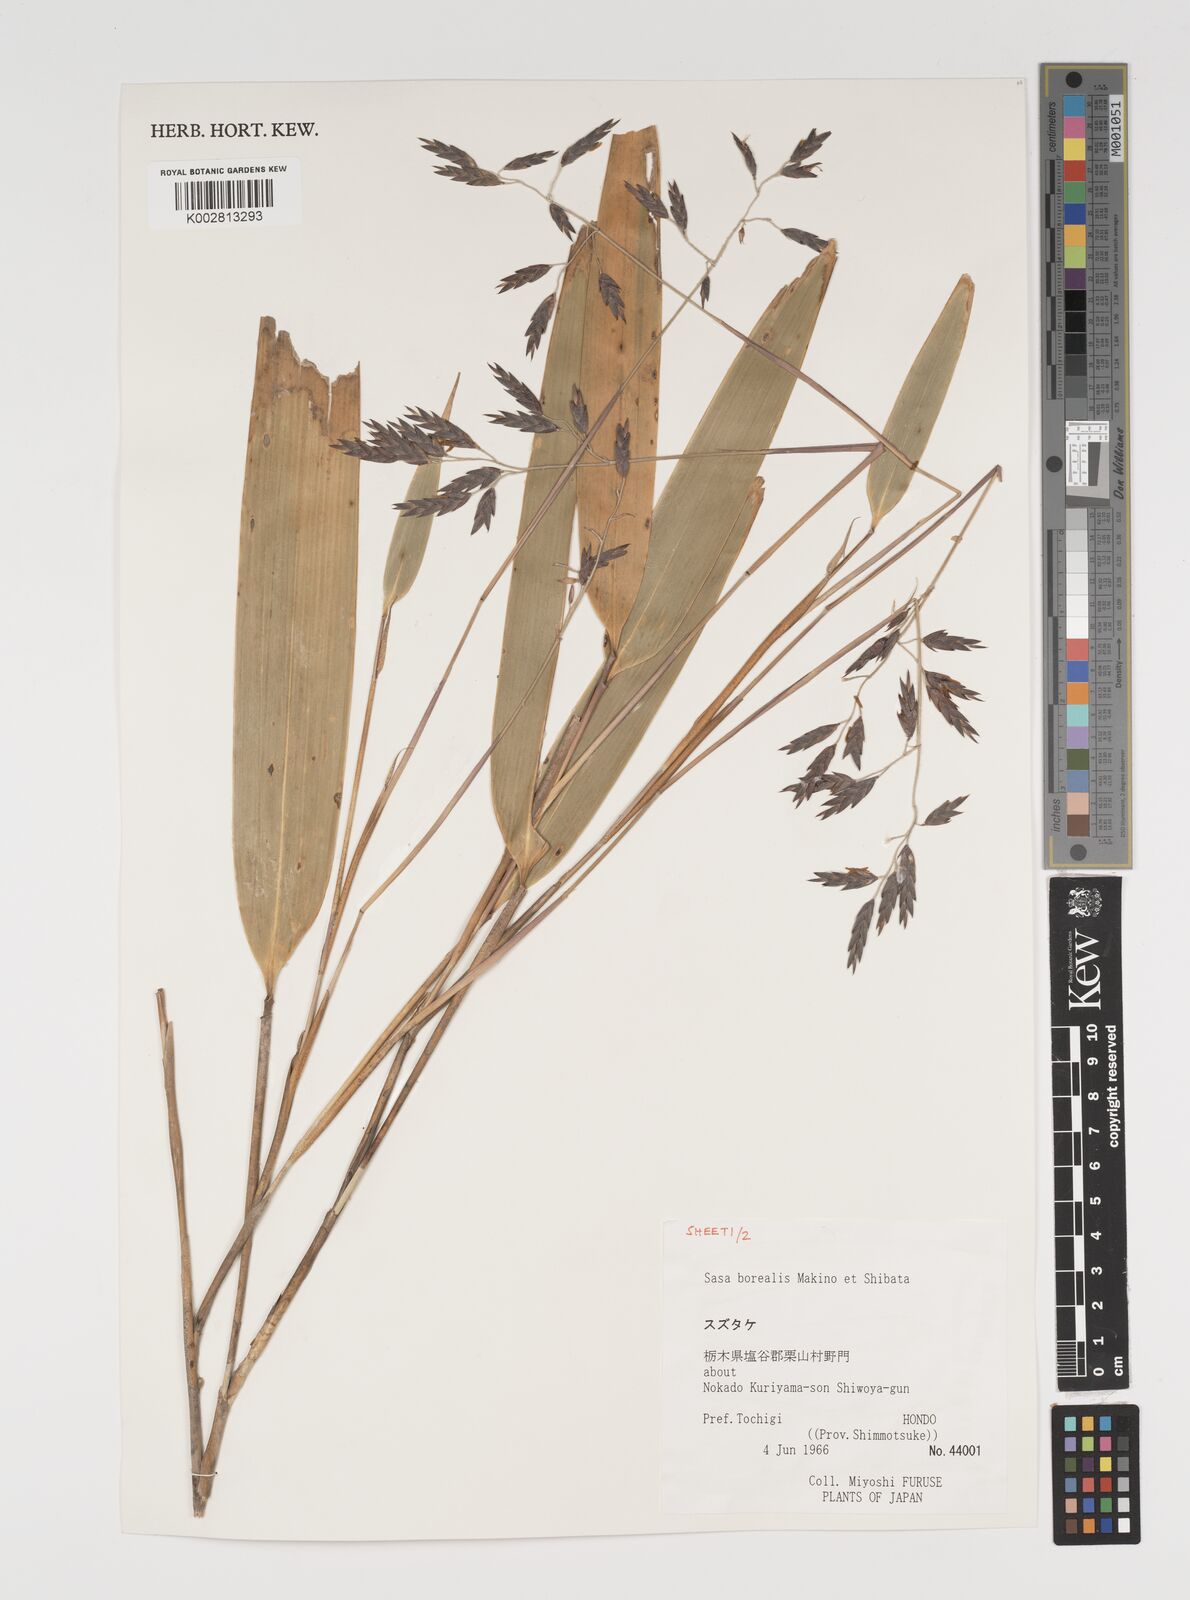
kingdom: Plantae
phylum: Tracheophyta
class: Liliopsida
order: Poales
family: Poaceae
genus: Sasamorpha
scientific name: Sasamorpha borealis
